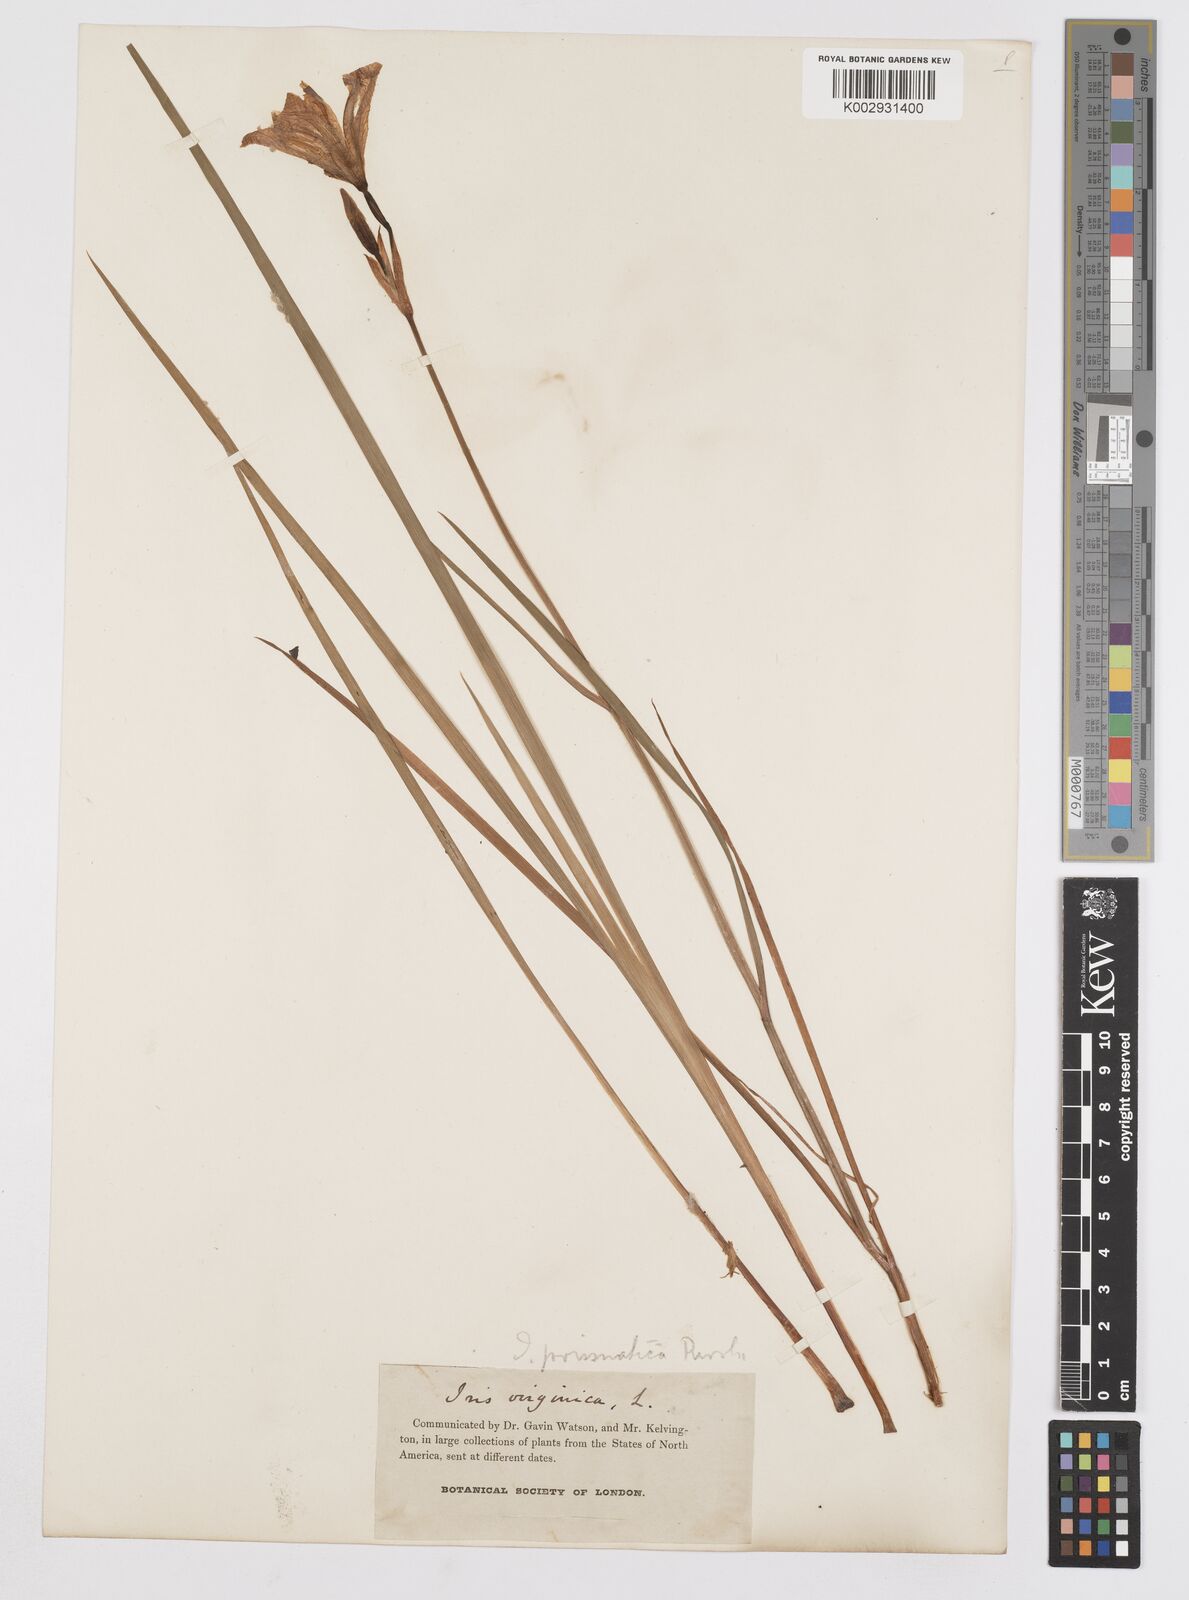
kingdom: Plantae
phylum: Tracheophyta
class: Liliopsida
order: Asparagales
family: Iridaceae
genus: Iris
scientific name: Iris prismatica
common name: Slender blue flag
